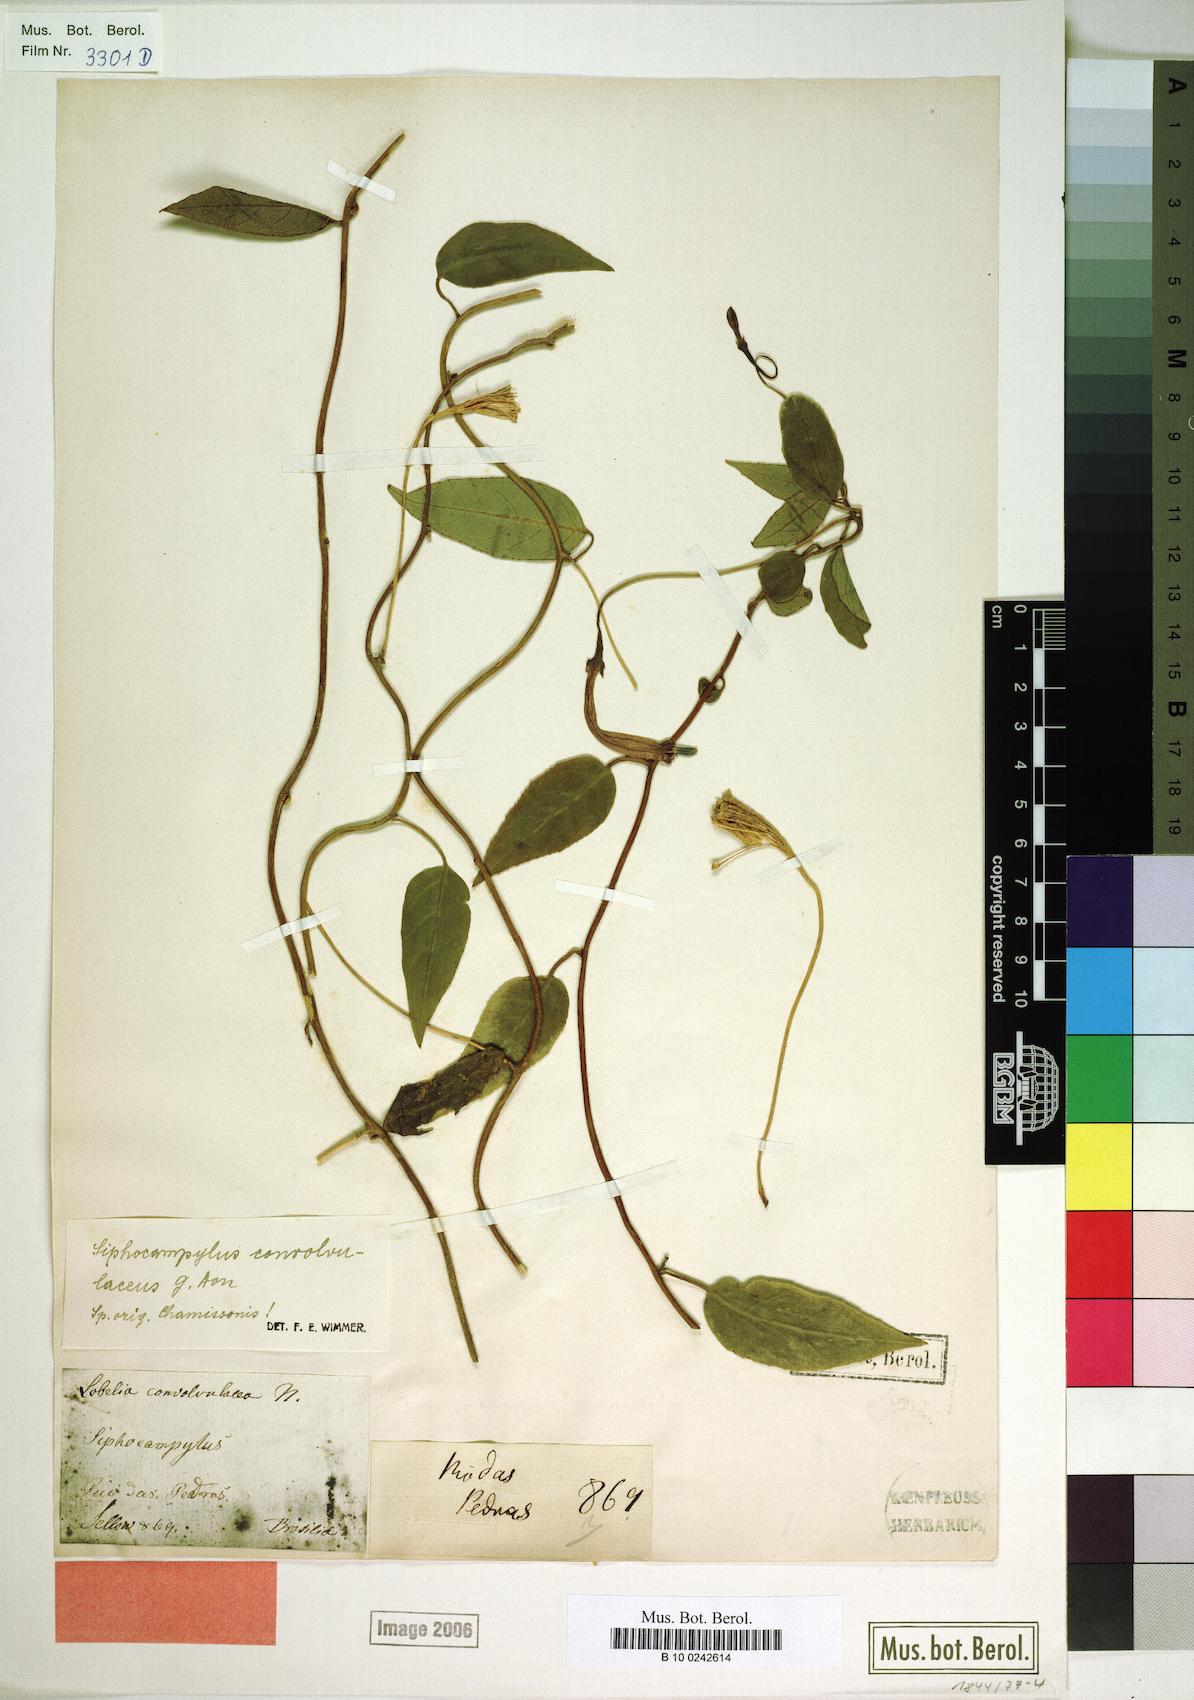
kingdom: Plantae
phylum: Tracheophyta
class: Magnoliopsida
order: Asterales
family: Campanulaceae
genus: Siphocampylus
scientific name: Siphocampylus convolvulaceus
